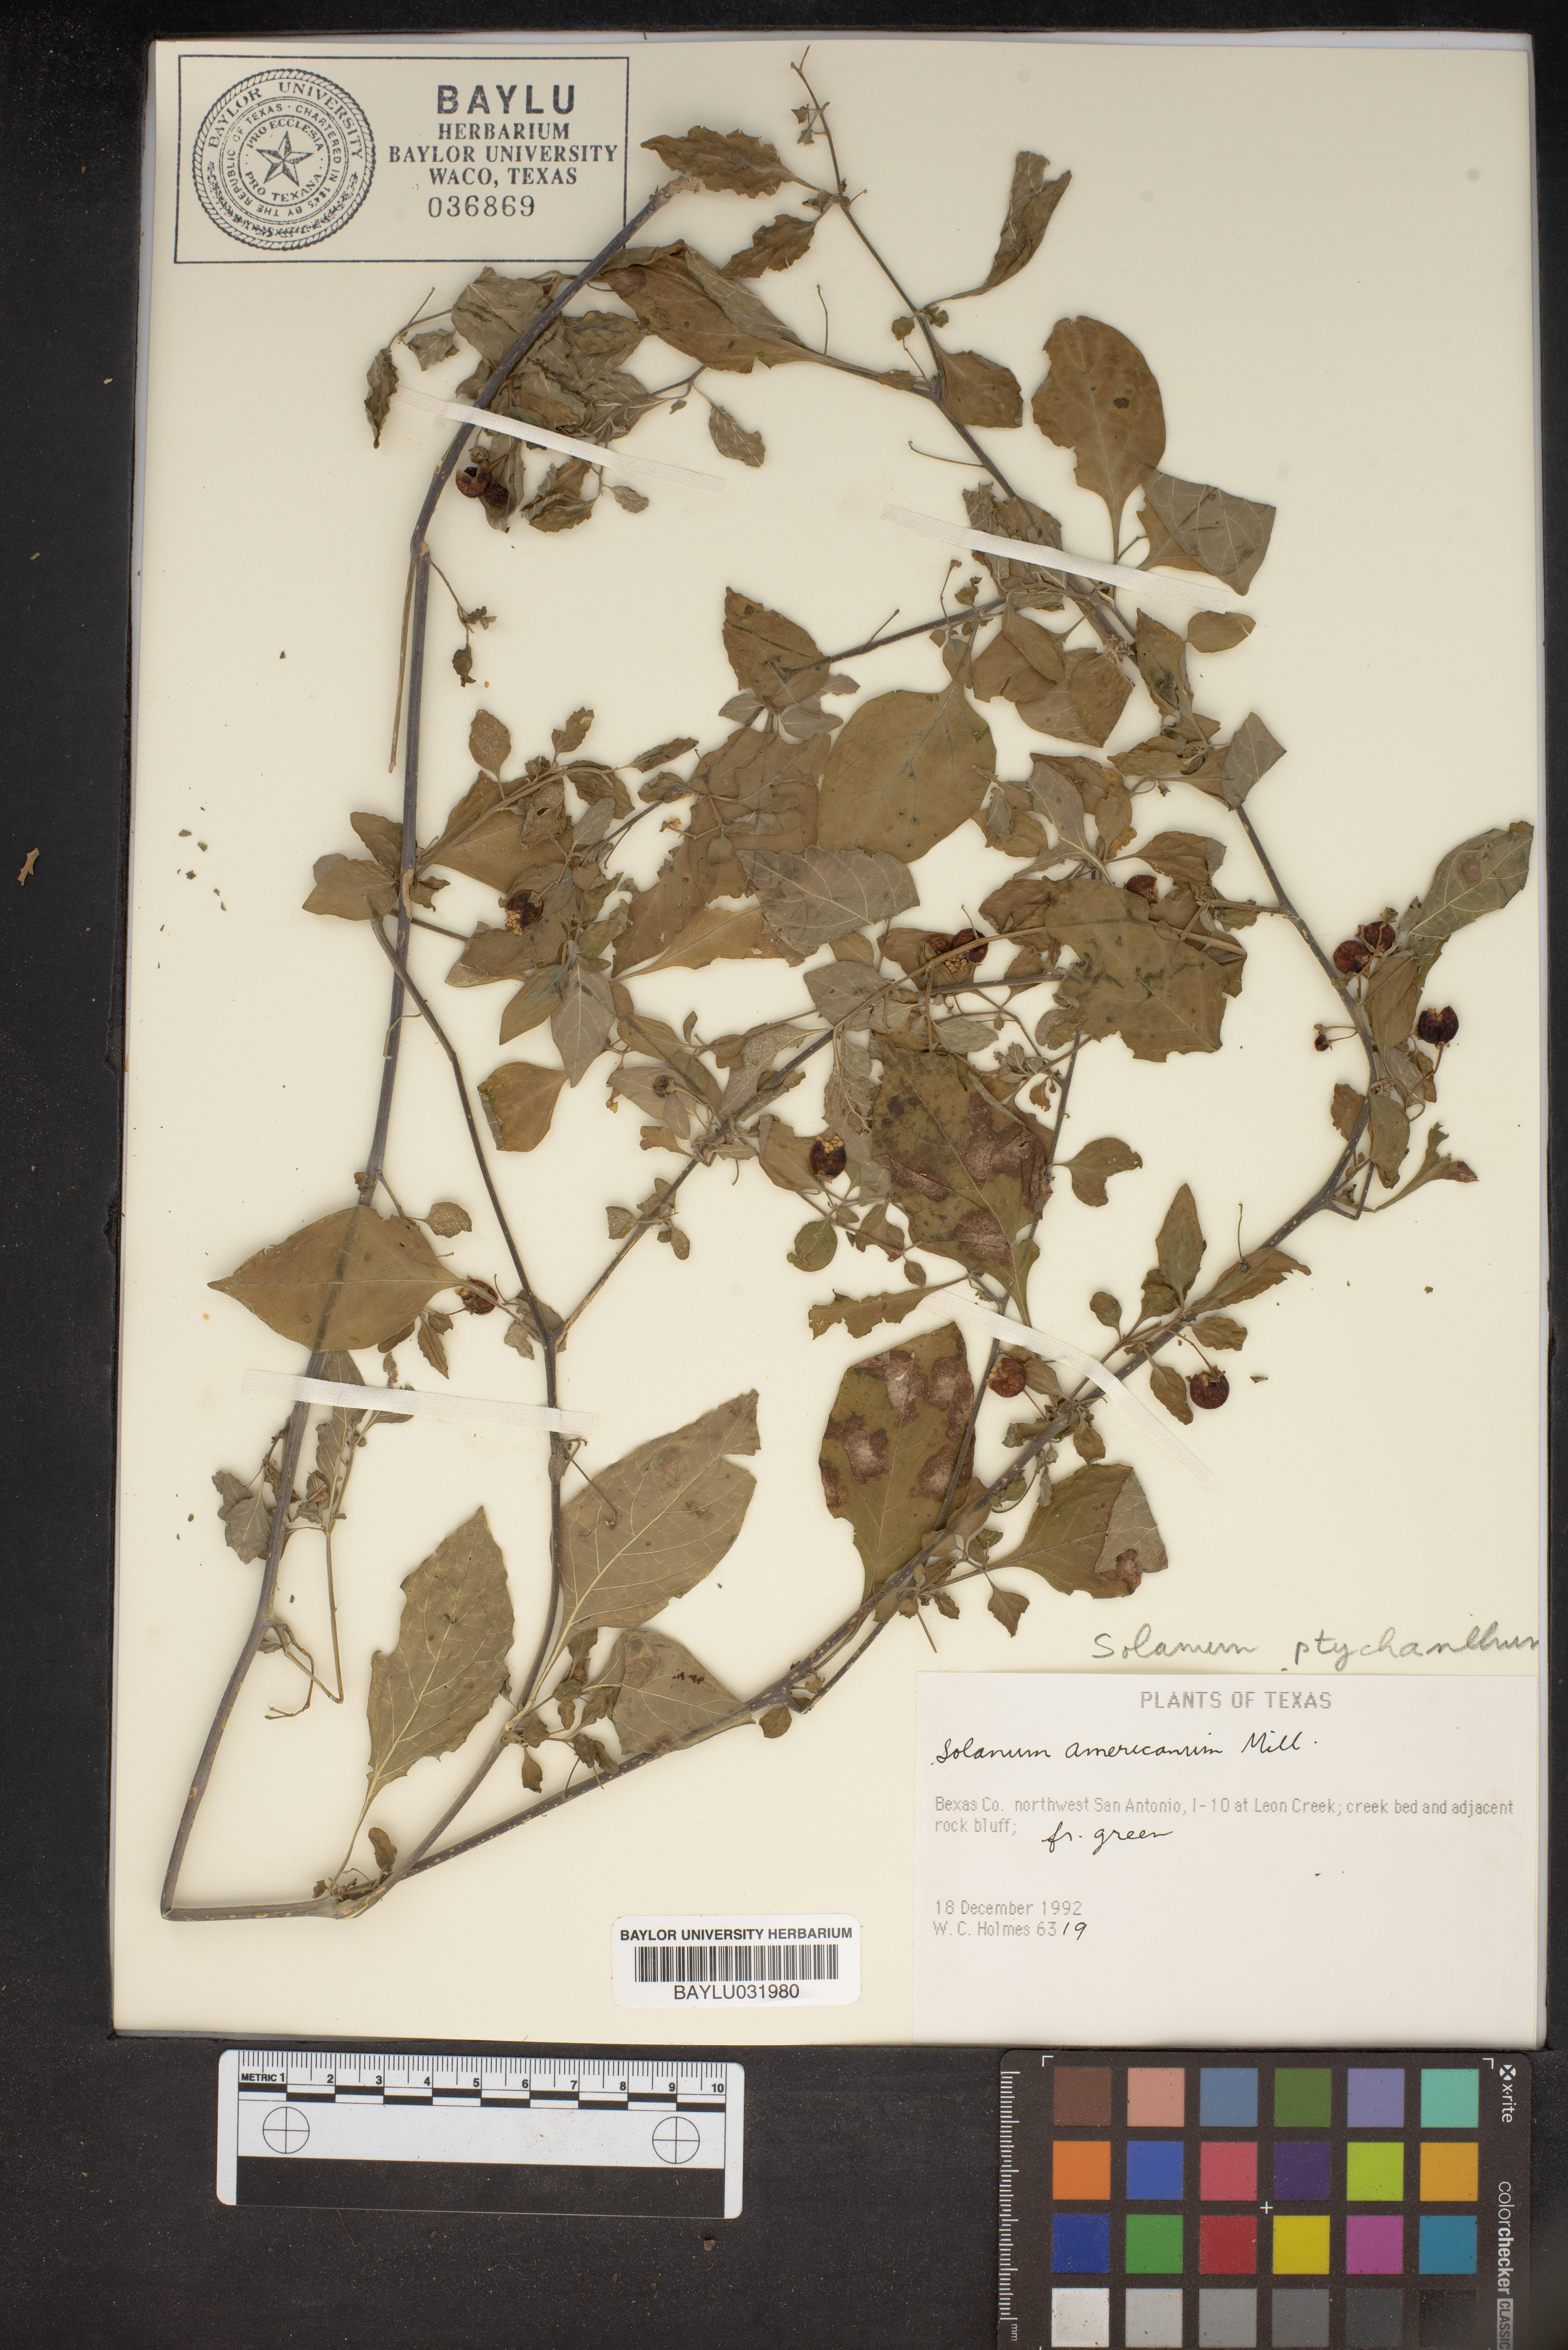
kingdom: Plantae
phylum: Tracheophyta
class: Magnoliopsida
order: Solanales
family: Solanaceae
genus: Solanum
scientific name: Solanum americanum
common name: American black nightshade
